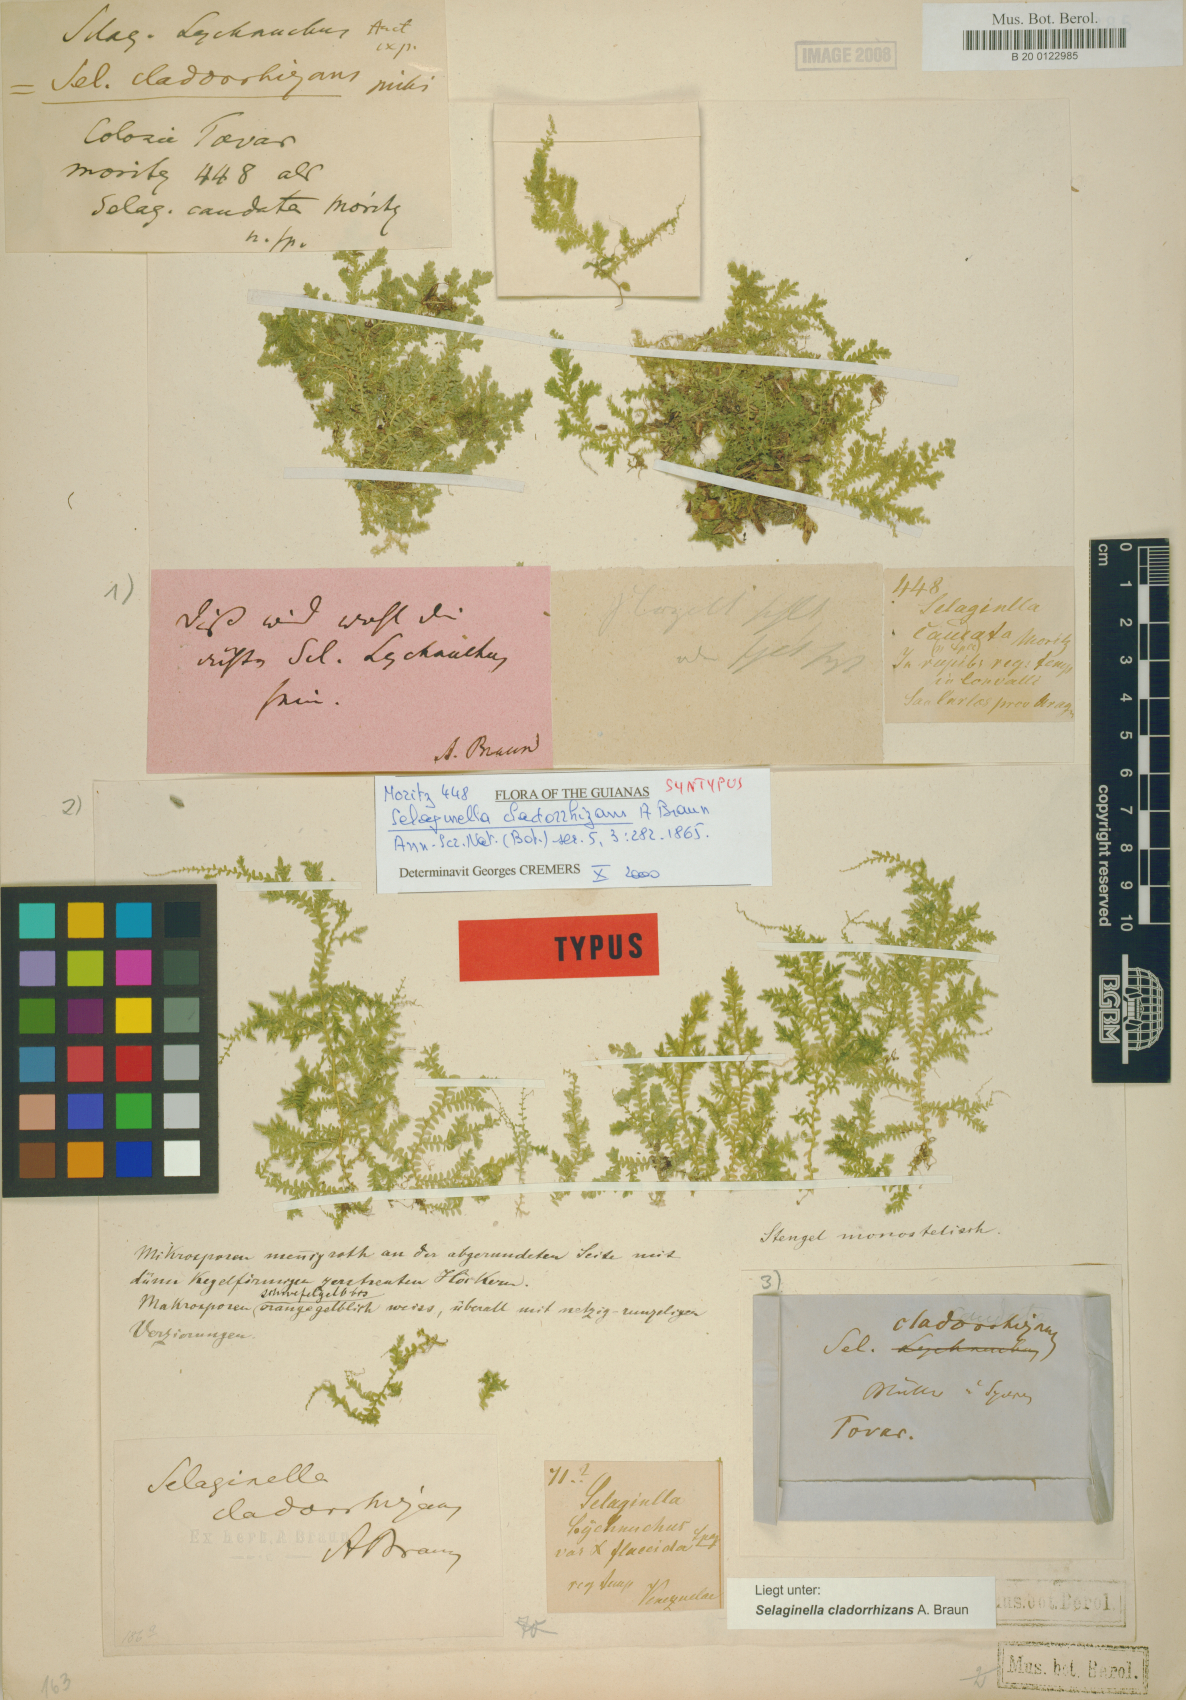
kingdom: Plantae
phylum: Tracheophyta
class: Lycopodiopsida
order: Selaginellales
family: Selaginellaceae
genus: Selaginella
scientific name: Selaginella tenella
